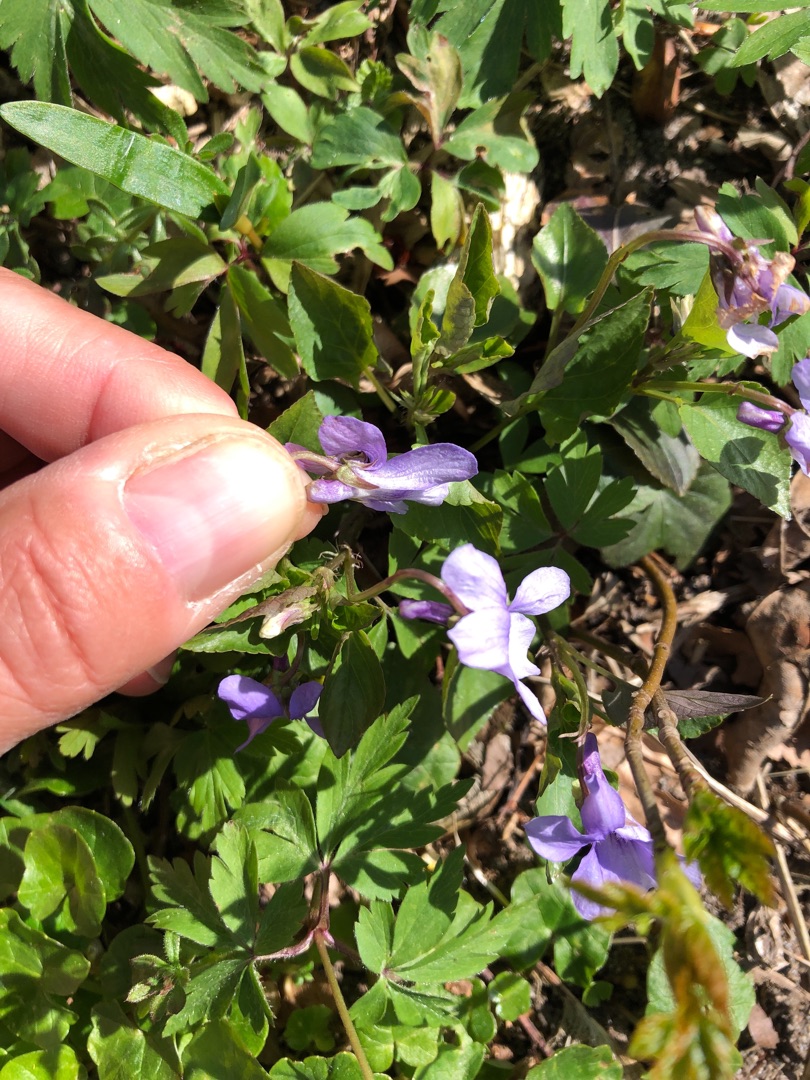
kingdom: Plantae
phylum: Tracheophyta
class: Magnoliopsida
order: Malpighiales
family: Violaceae
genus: Viola
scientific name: Viola reichenbachiana
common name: Skov-viol
